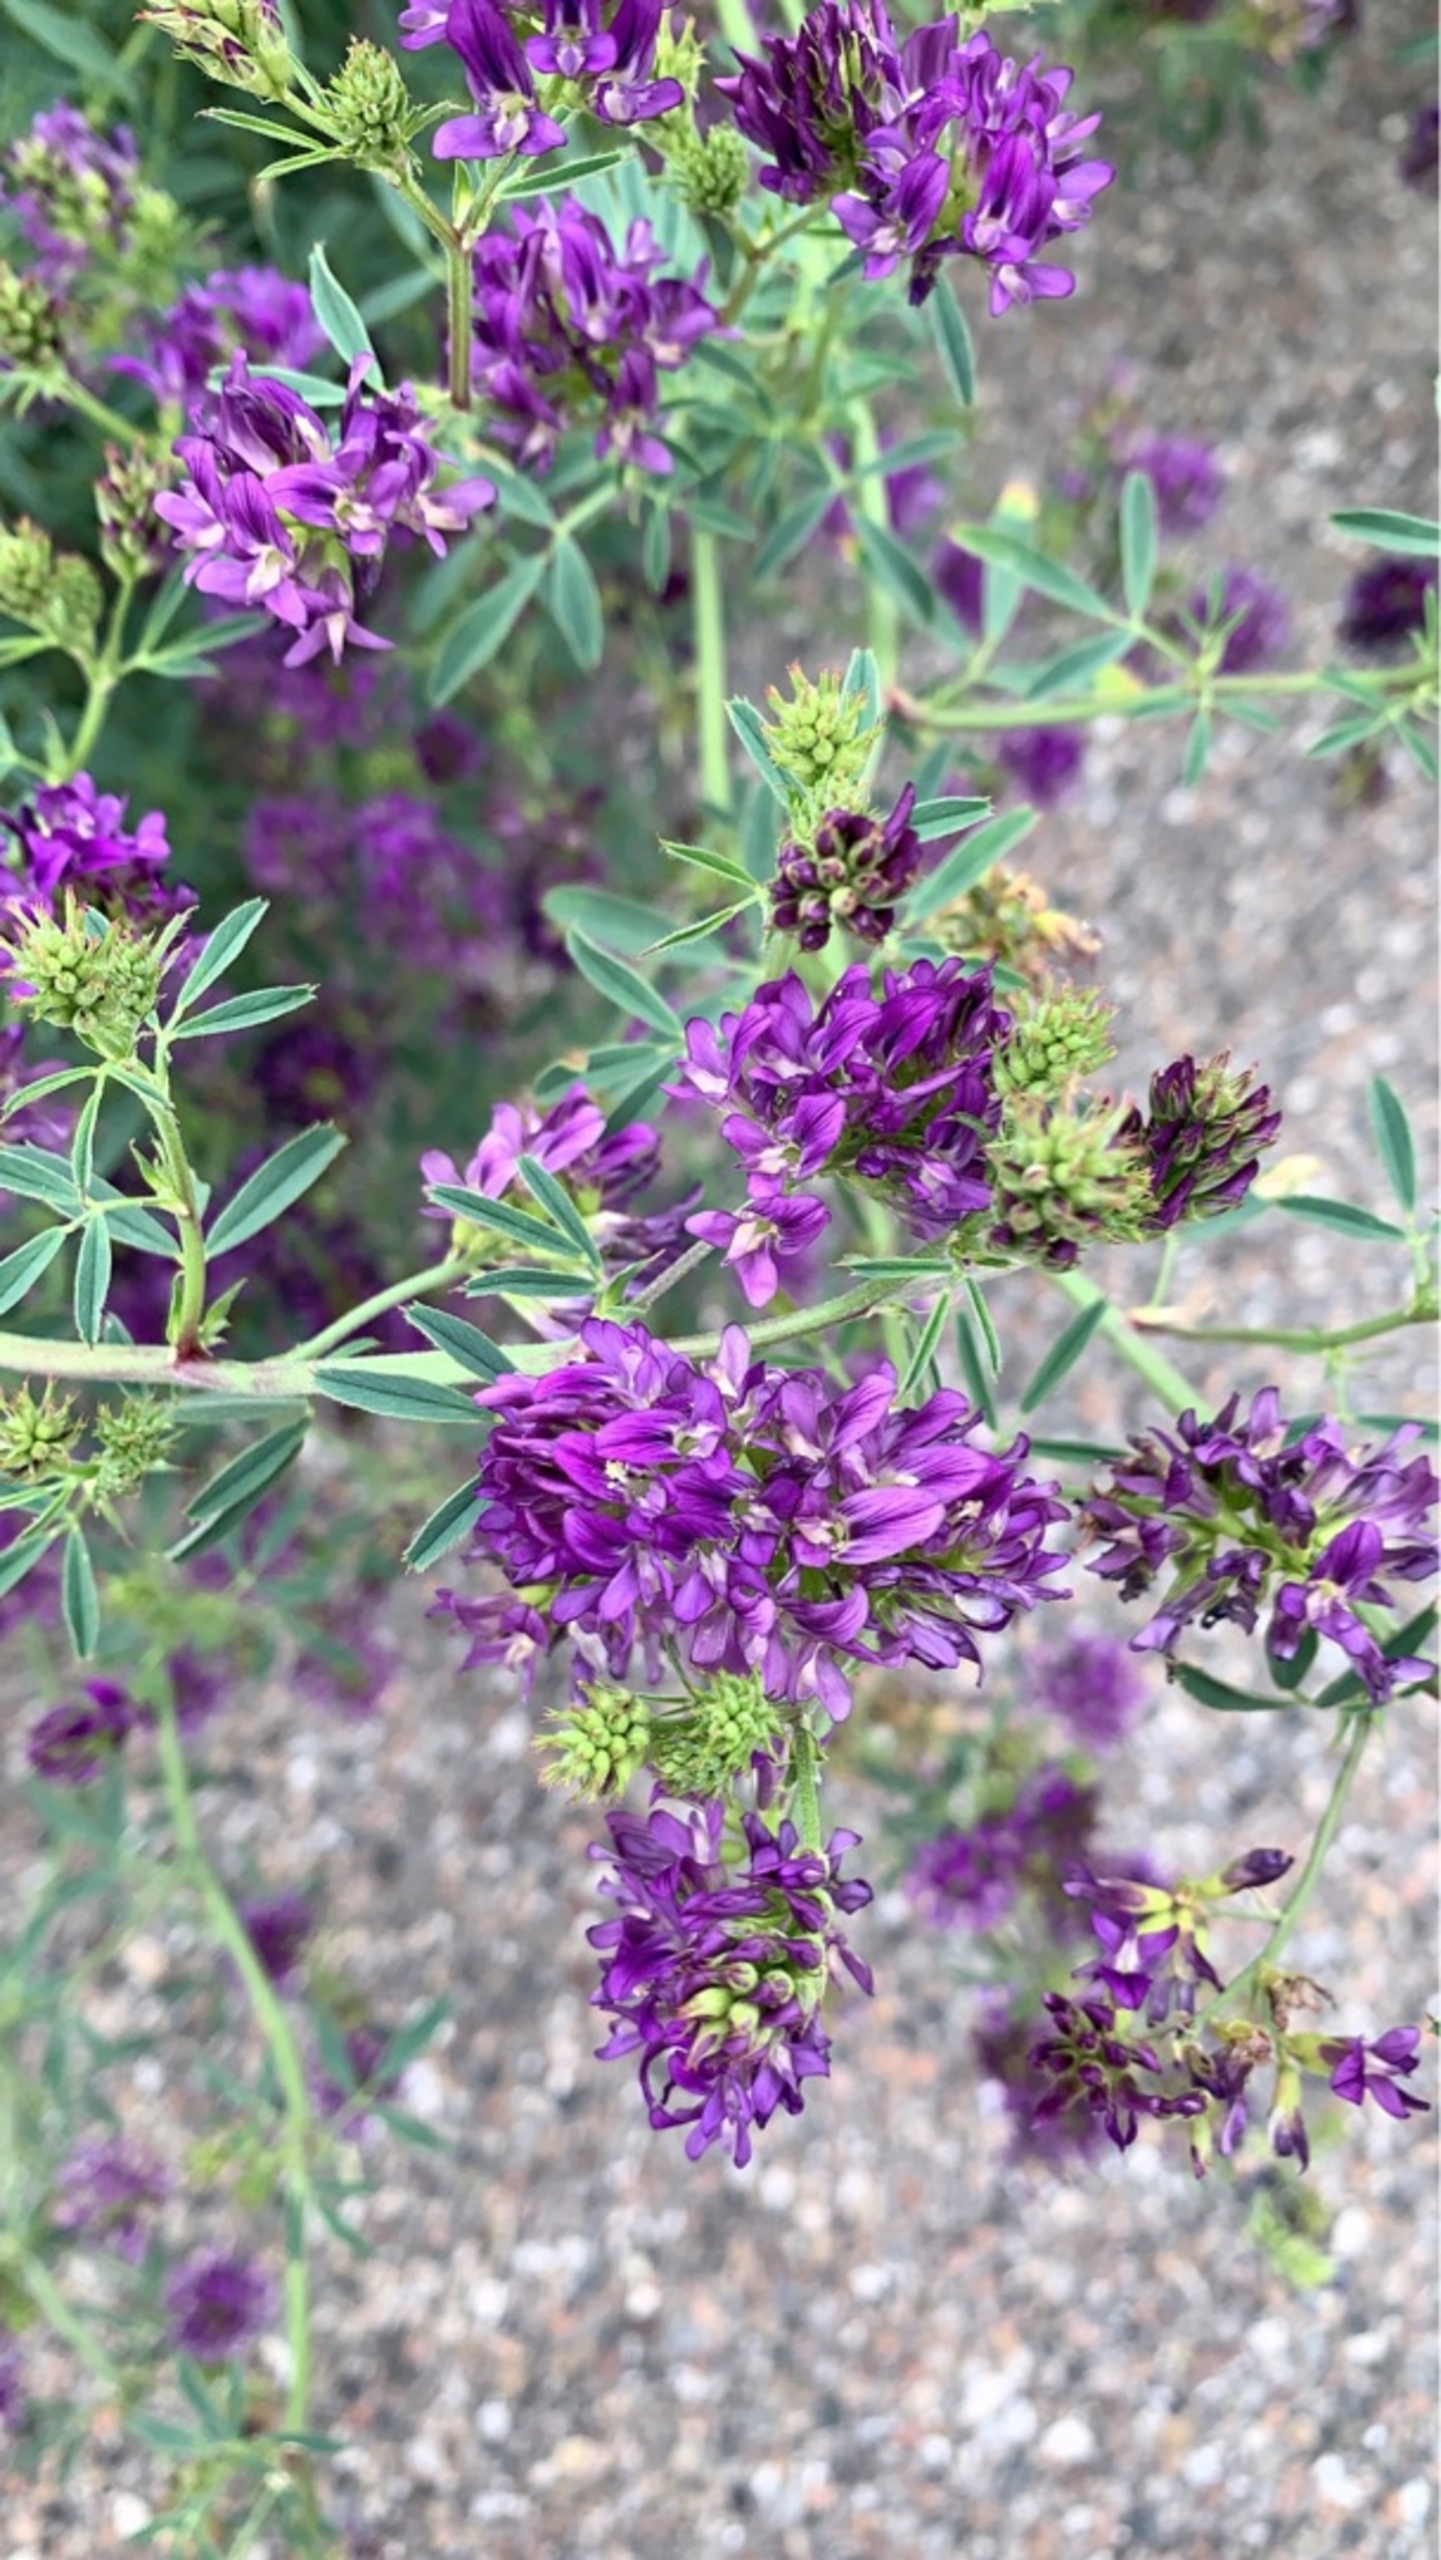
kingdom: Plantae
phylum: Tracheophyta
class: Magnoliopsida
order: Fabales
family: Fabaceae
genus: Medicago
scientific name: Medicago sativa
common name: Lucerne
